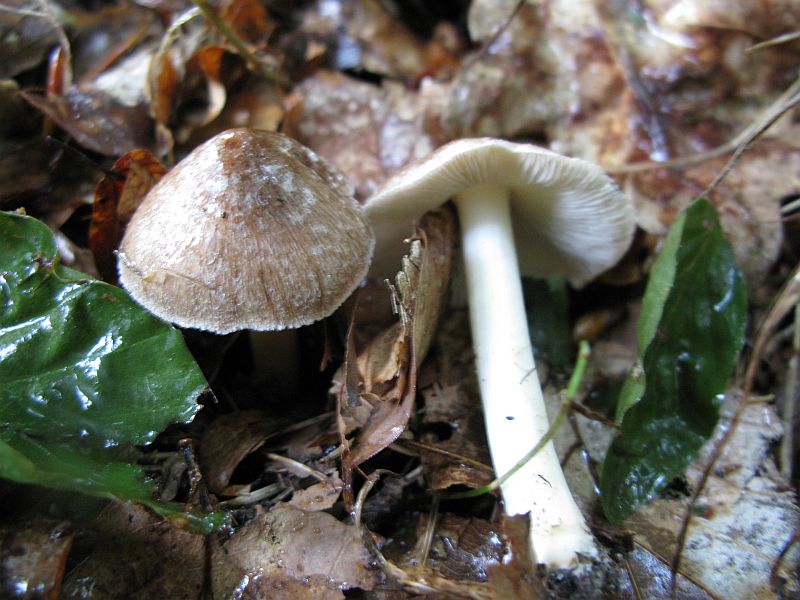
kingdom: Fungi
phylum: Basidiomycota
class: Agaricomycetes
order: Agaricales
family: Inocybaceae
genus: Inocybe
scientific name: Inocybe
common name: trævlhat
